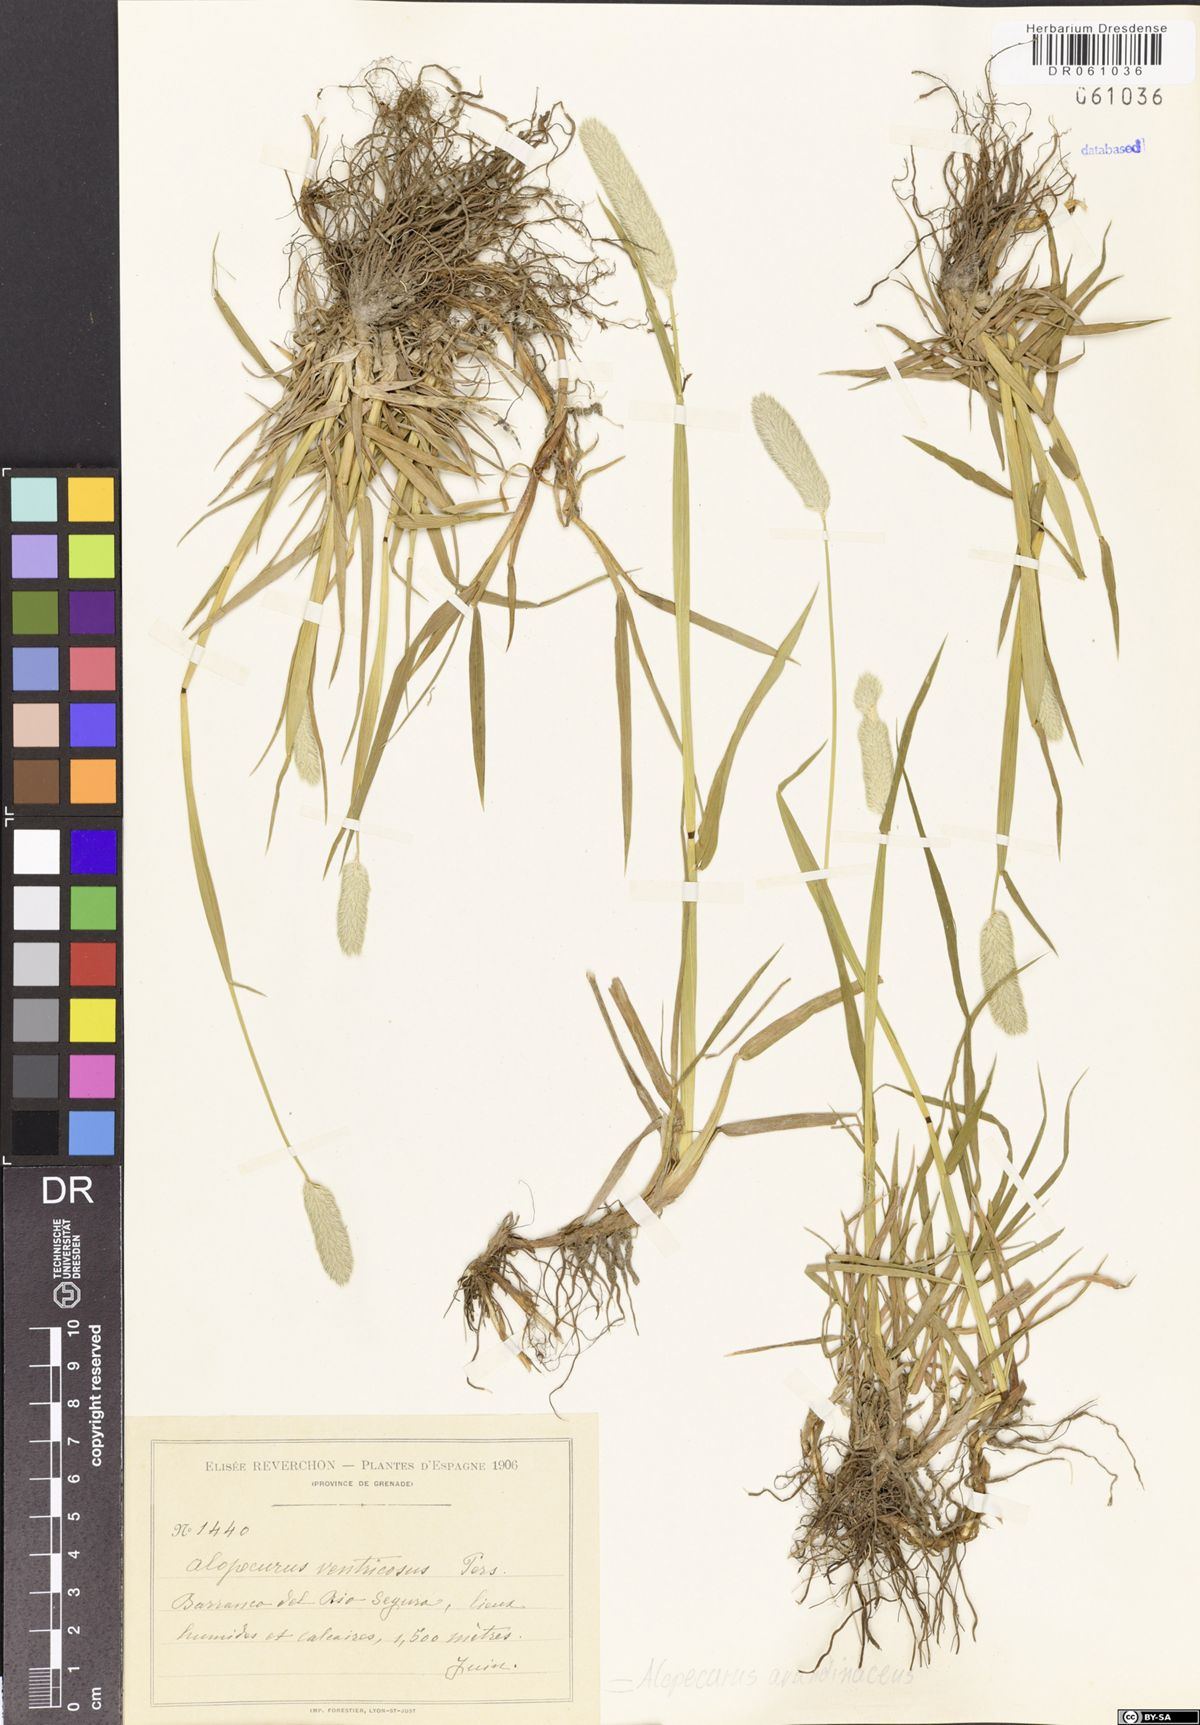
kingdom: Plantae
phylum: Tracheophyta
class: Liliopsida
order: Poales
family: Poaceae
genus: Alopecurus
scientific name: Alopecurus arundinaceus
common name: Creeping meadow foxtail
